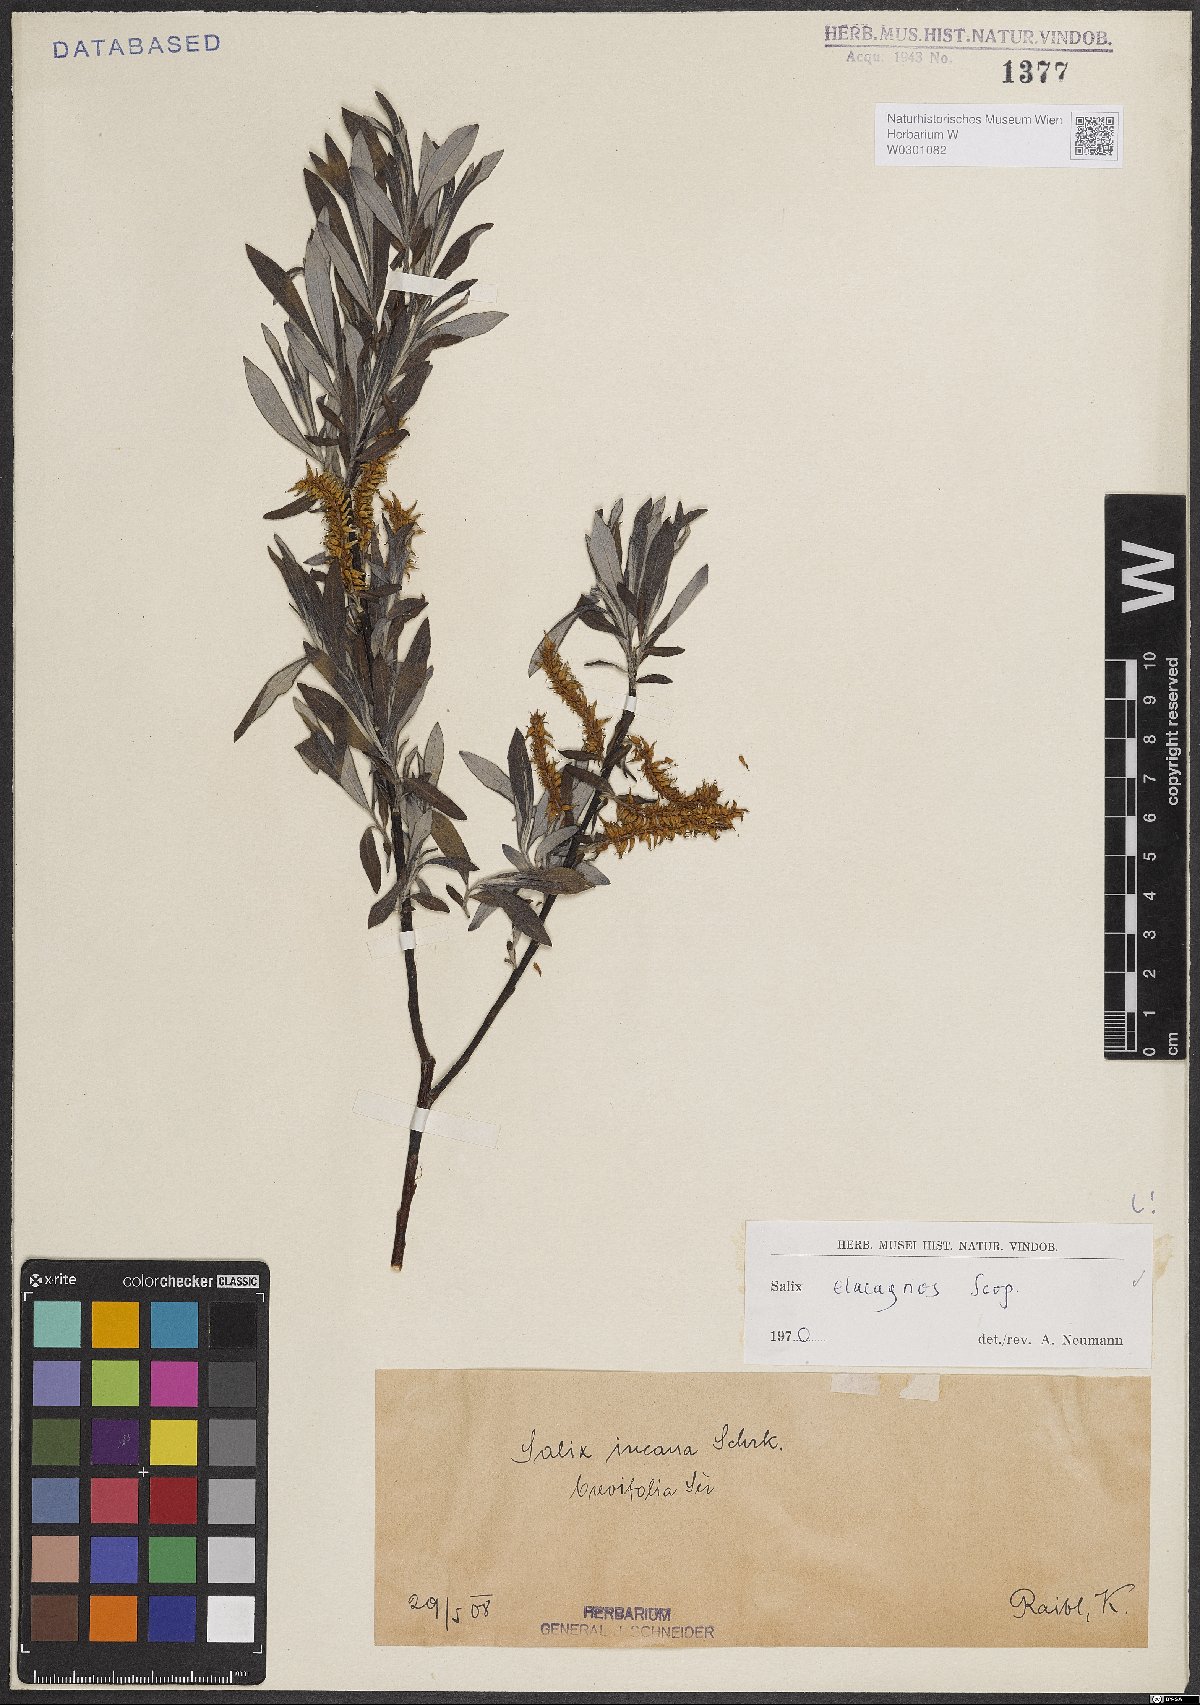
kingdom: Plantae
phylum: Tracheophyta
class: Magnoliopsida
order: Malpighiales
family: Salicaceae
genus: Salix
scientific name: Salix eleagnos
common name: Elaeagnus willow
